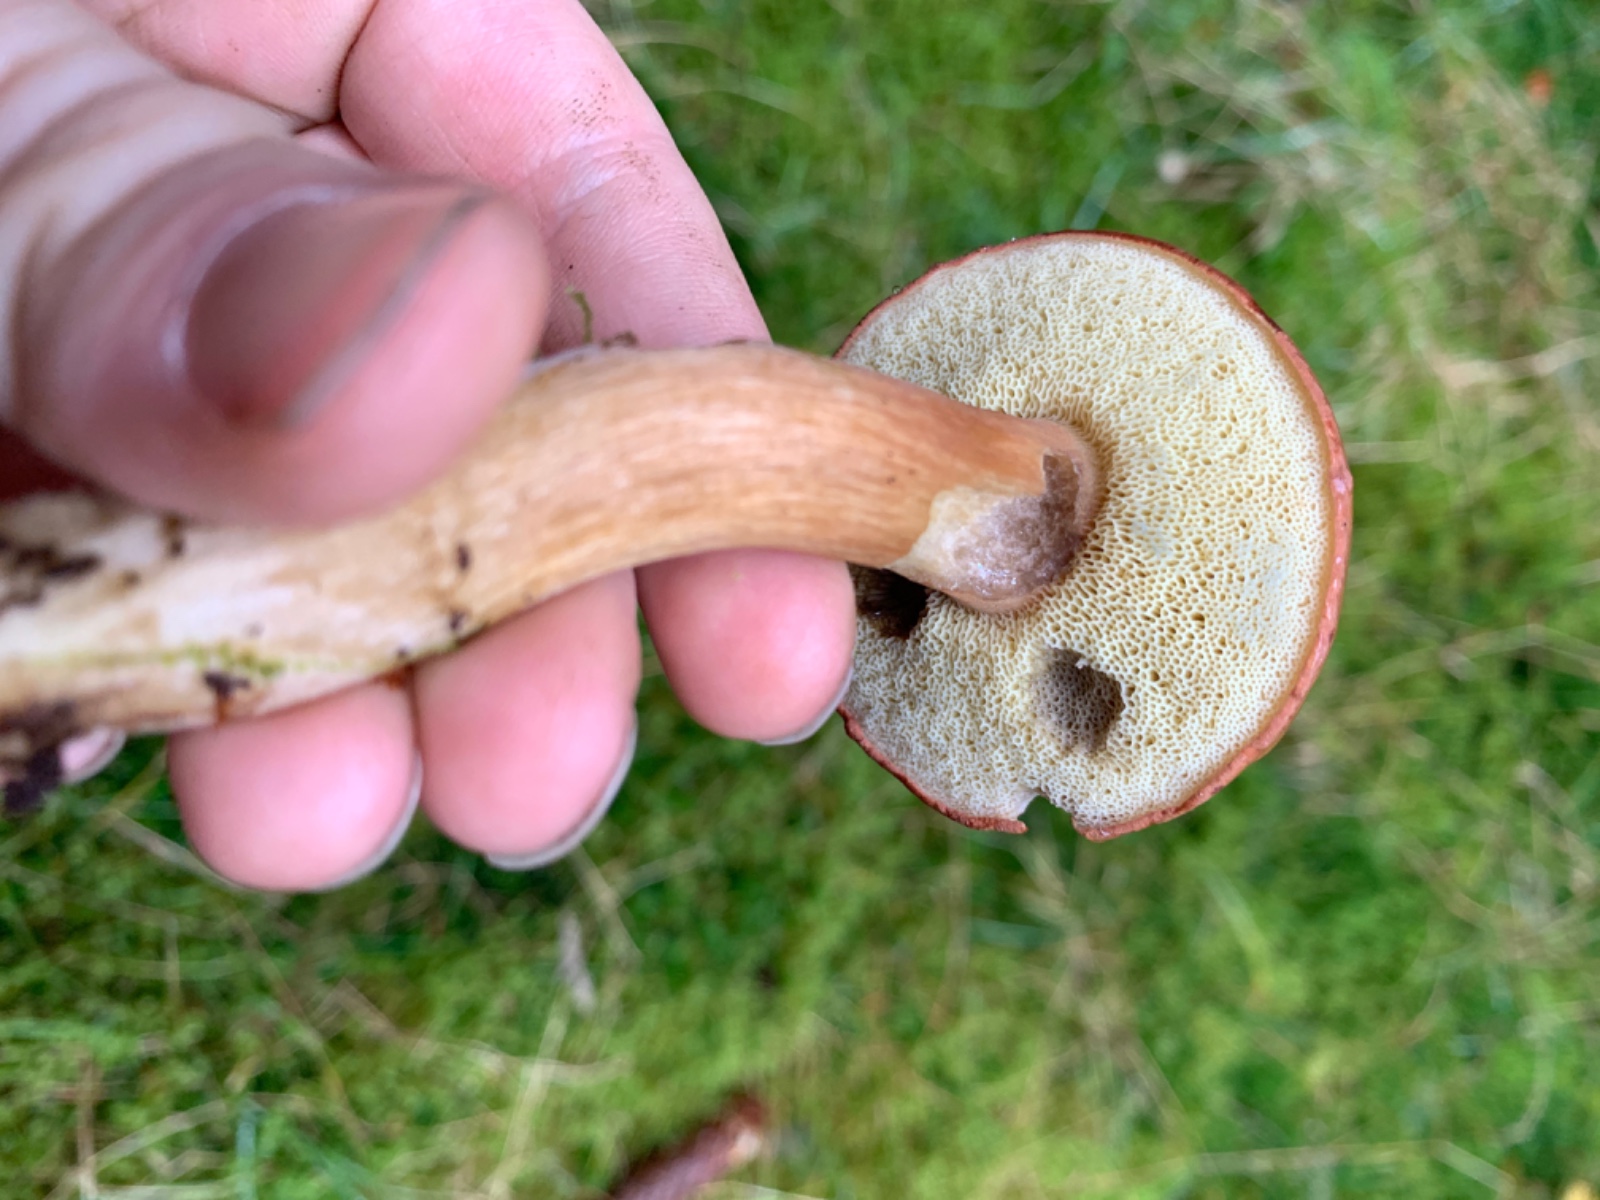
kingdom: Fungi
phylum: Basidiomycota
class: Agaricomycetes
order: Boletales
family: Boletaceae
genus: Imleria
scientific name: Imleria badia
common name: brunstokket rørhat
